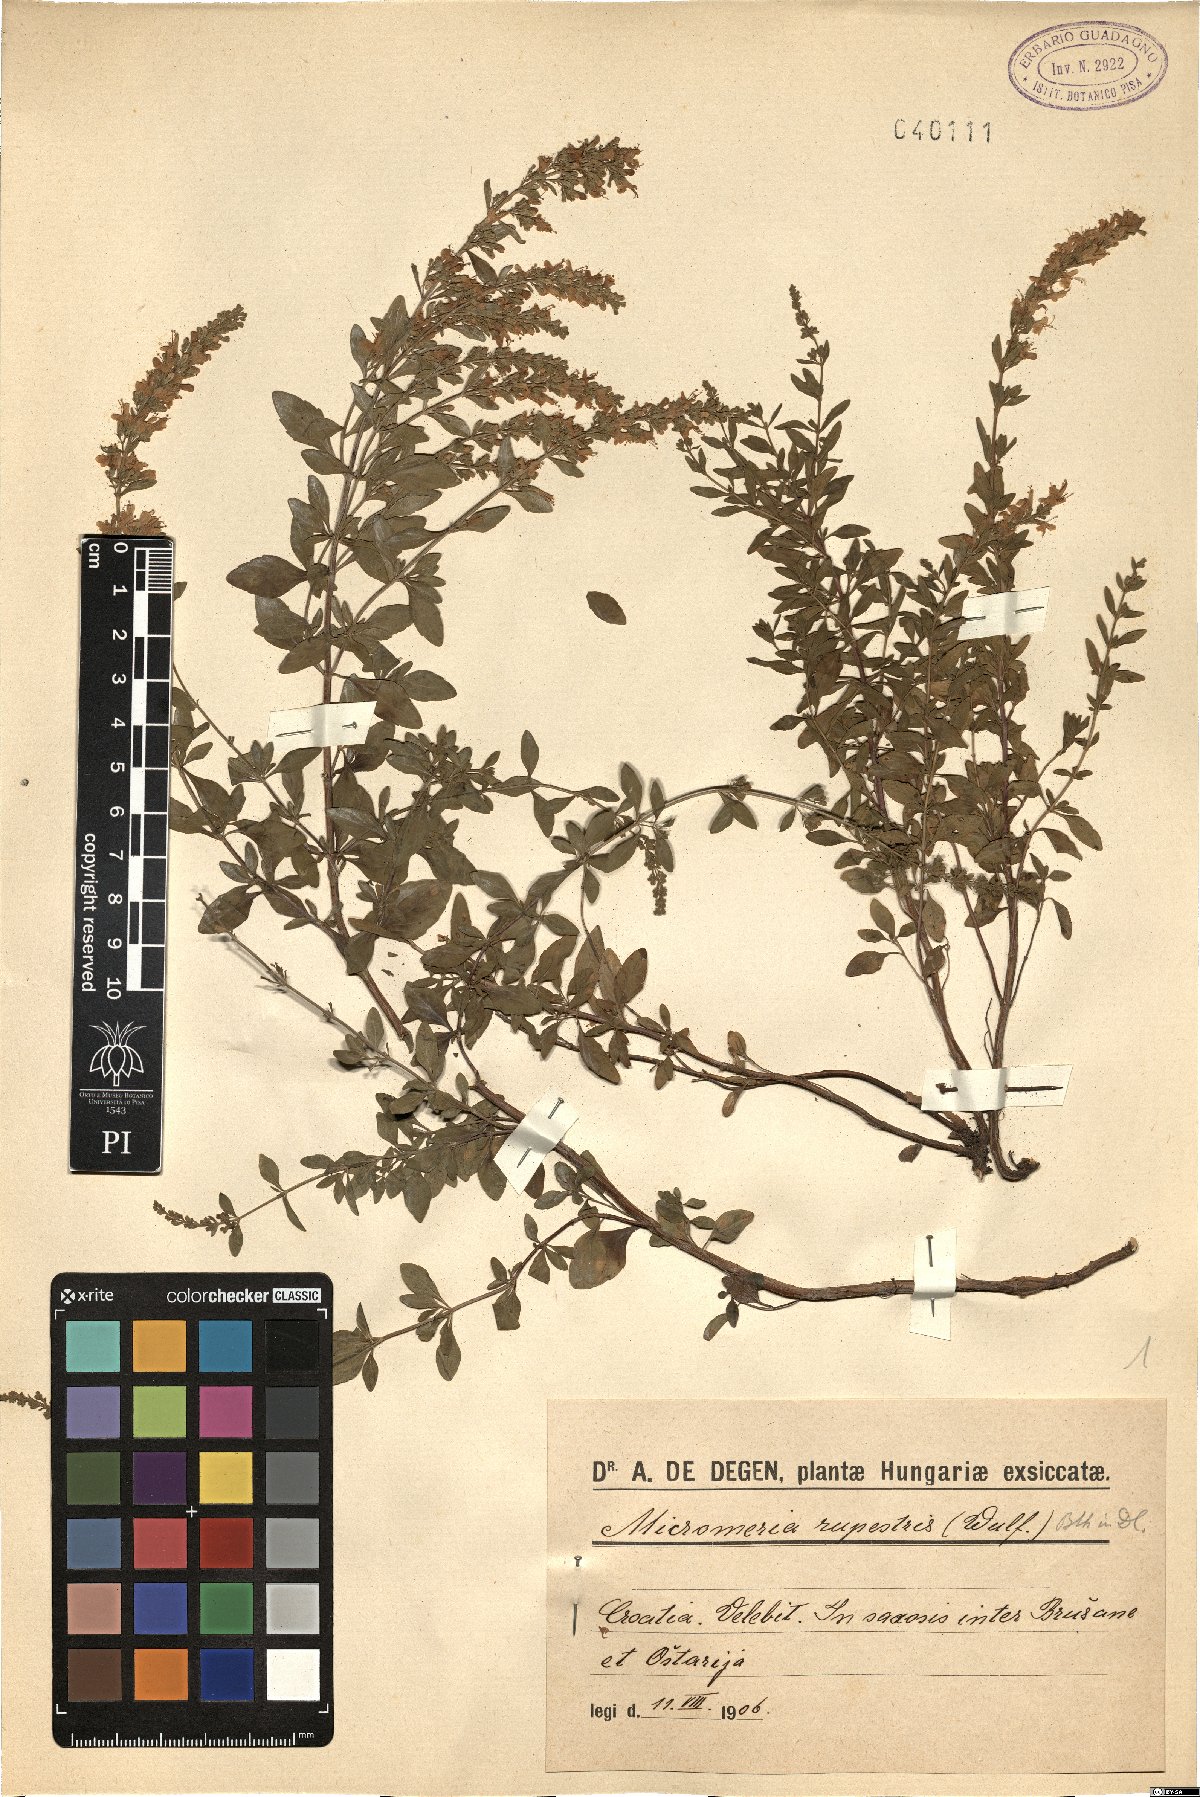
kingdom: Plantae
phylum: Tracheophyta
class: Magnoliopsida
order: Lamiales
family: Lamiaceae
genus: Clinopodium
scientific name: Clinopodium album
